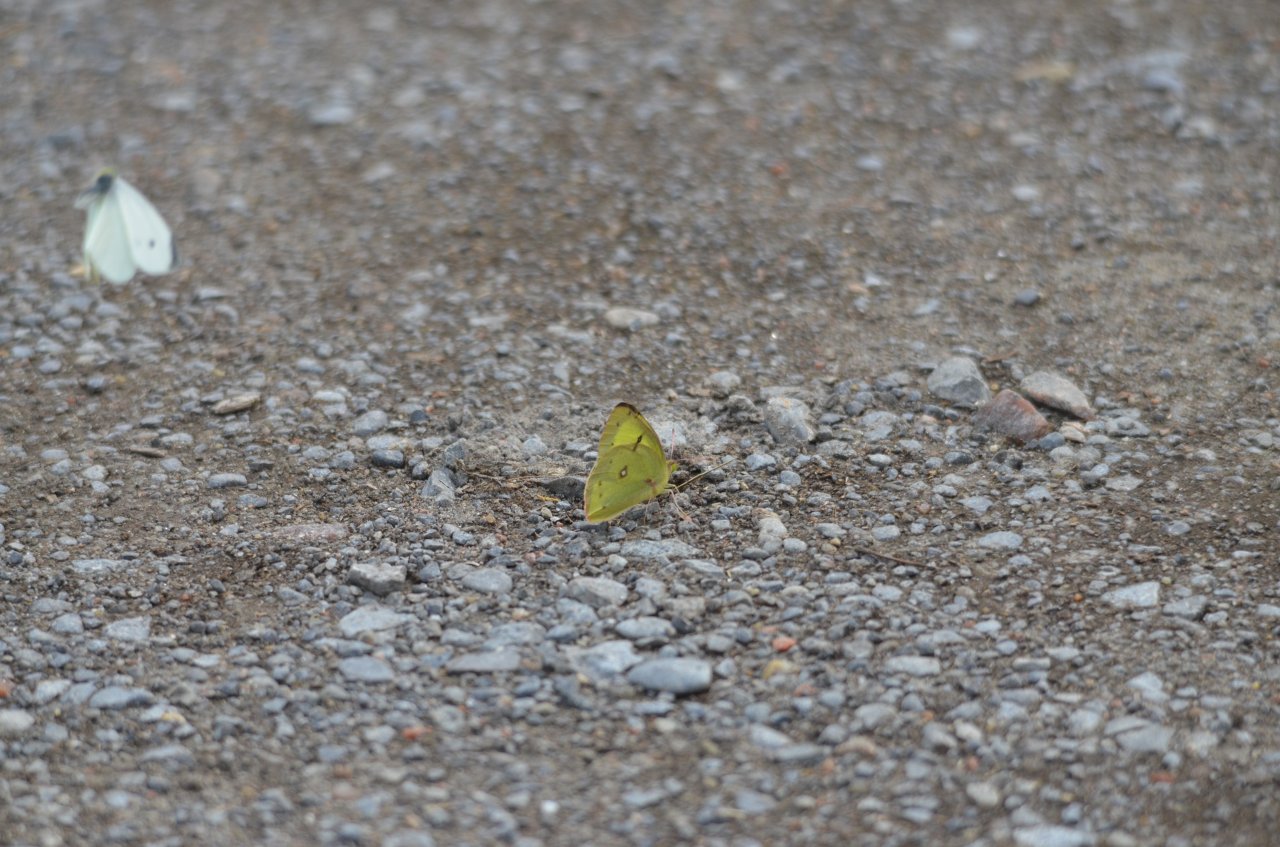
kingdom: Animalia
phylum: Arthropoda
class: Insecta
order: Lepidoptera
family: Pieridae
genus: Colias
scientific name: Colias philodice
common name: Clouded Sulphur
